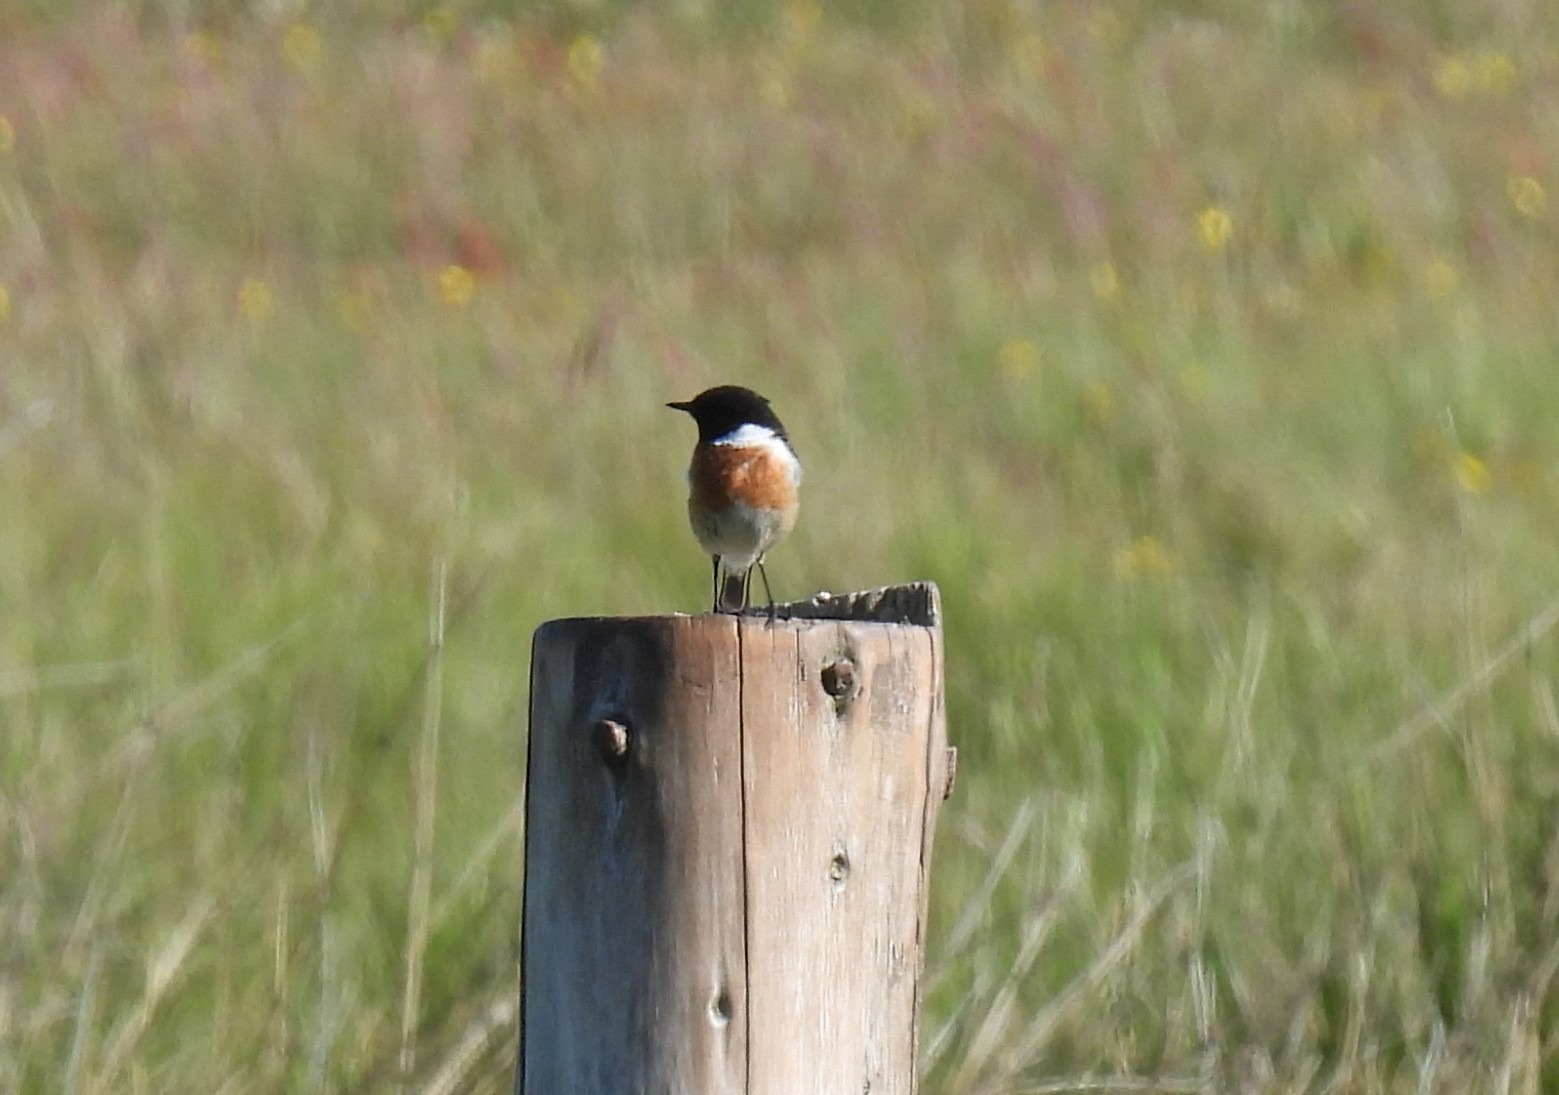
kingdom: Animalia
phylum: Chordata
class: Aves
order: Passeriformes
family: Muscicapidae
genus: Saxicola
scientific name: Saxicola rubicola
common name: Sortstrubet bynkefugl
